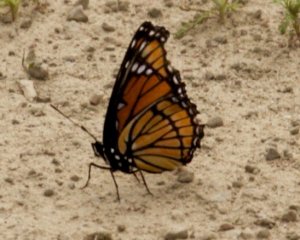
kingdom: Animalia
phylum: Arthropoda
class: Insecta
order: Lepidoptera
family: Nymphalidae
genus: Limenitis
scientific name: Limenitis archippus
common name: Viceroy
